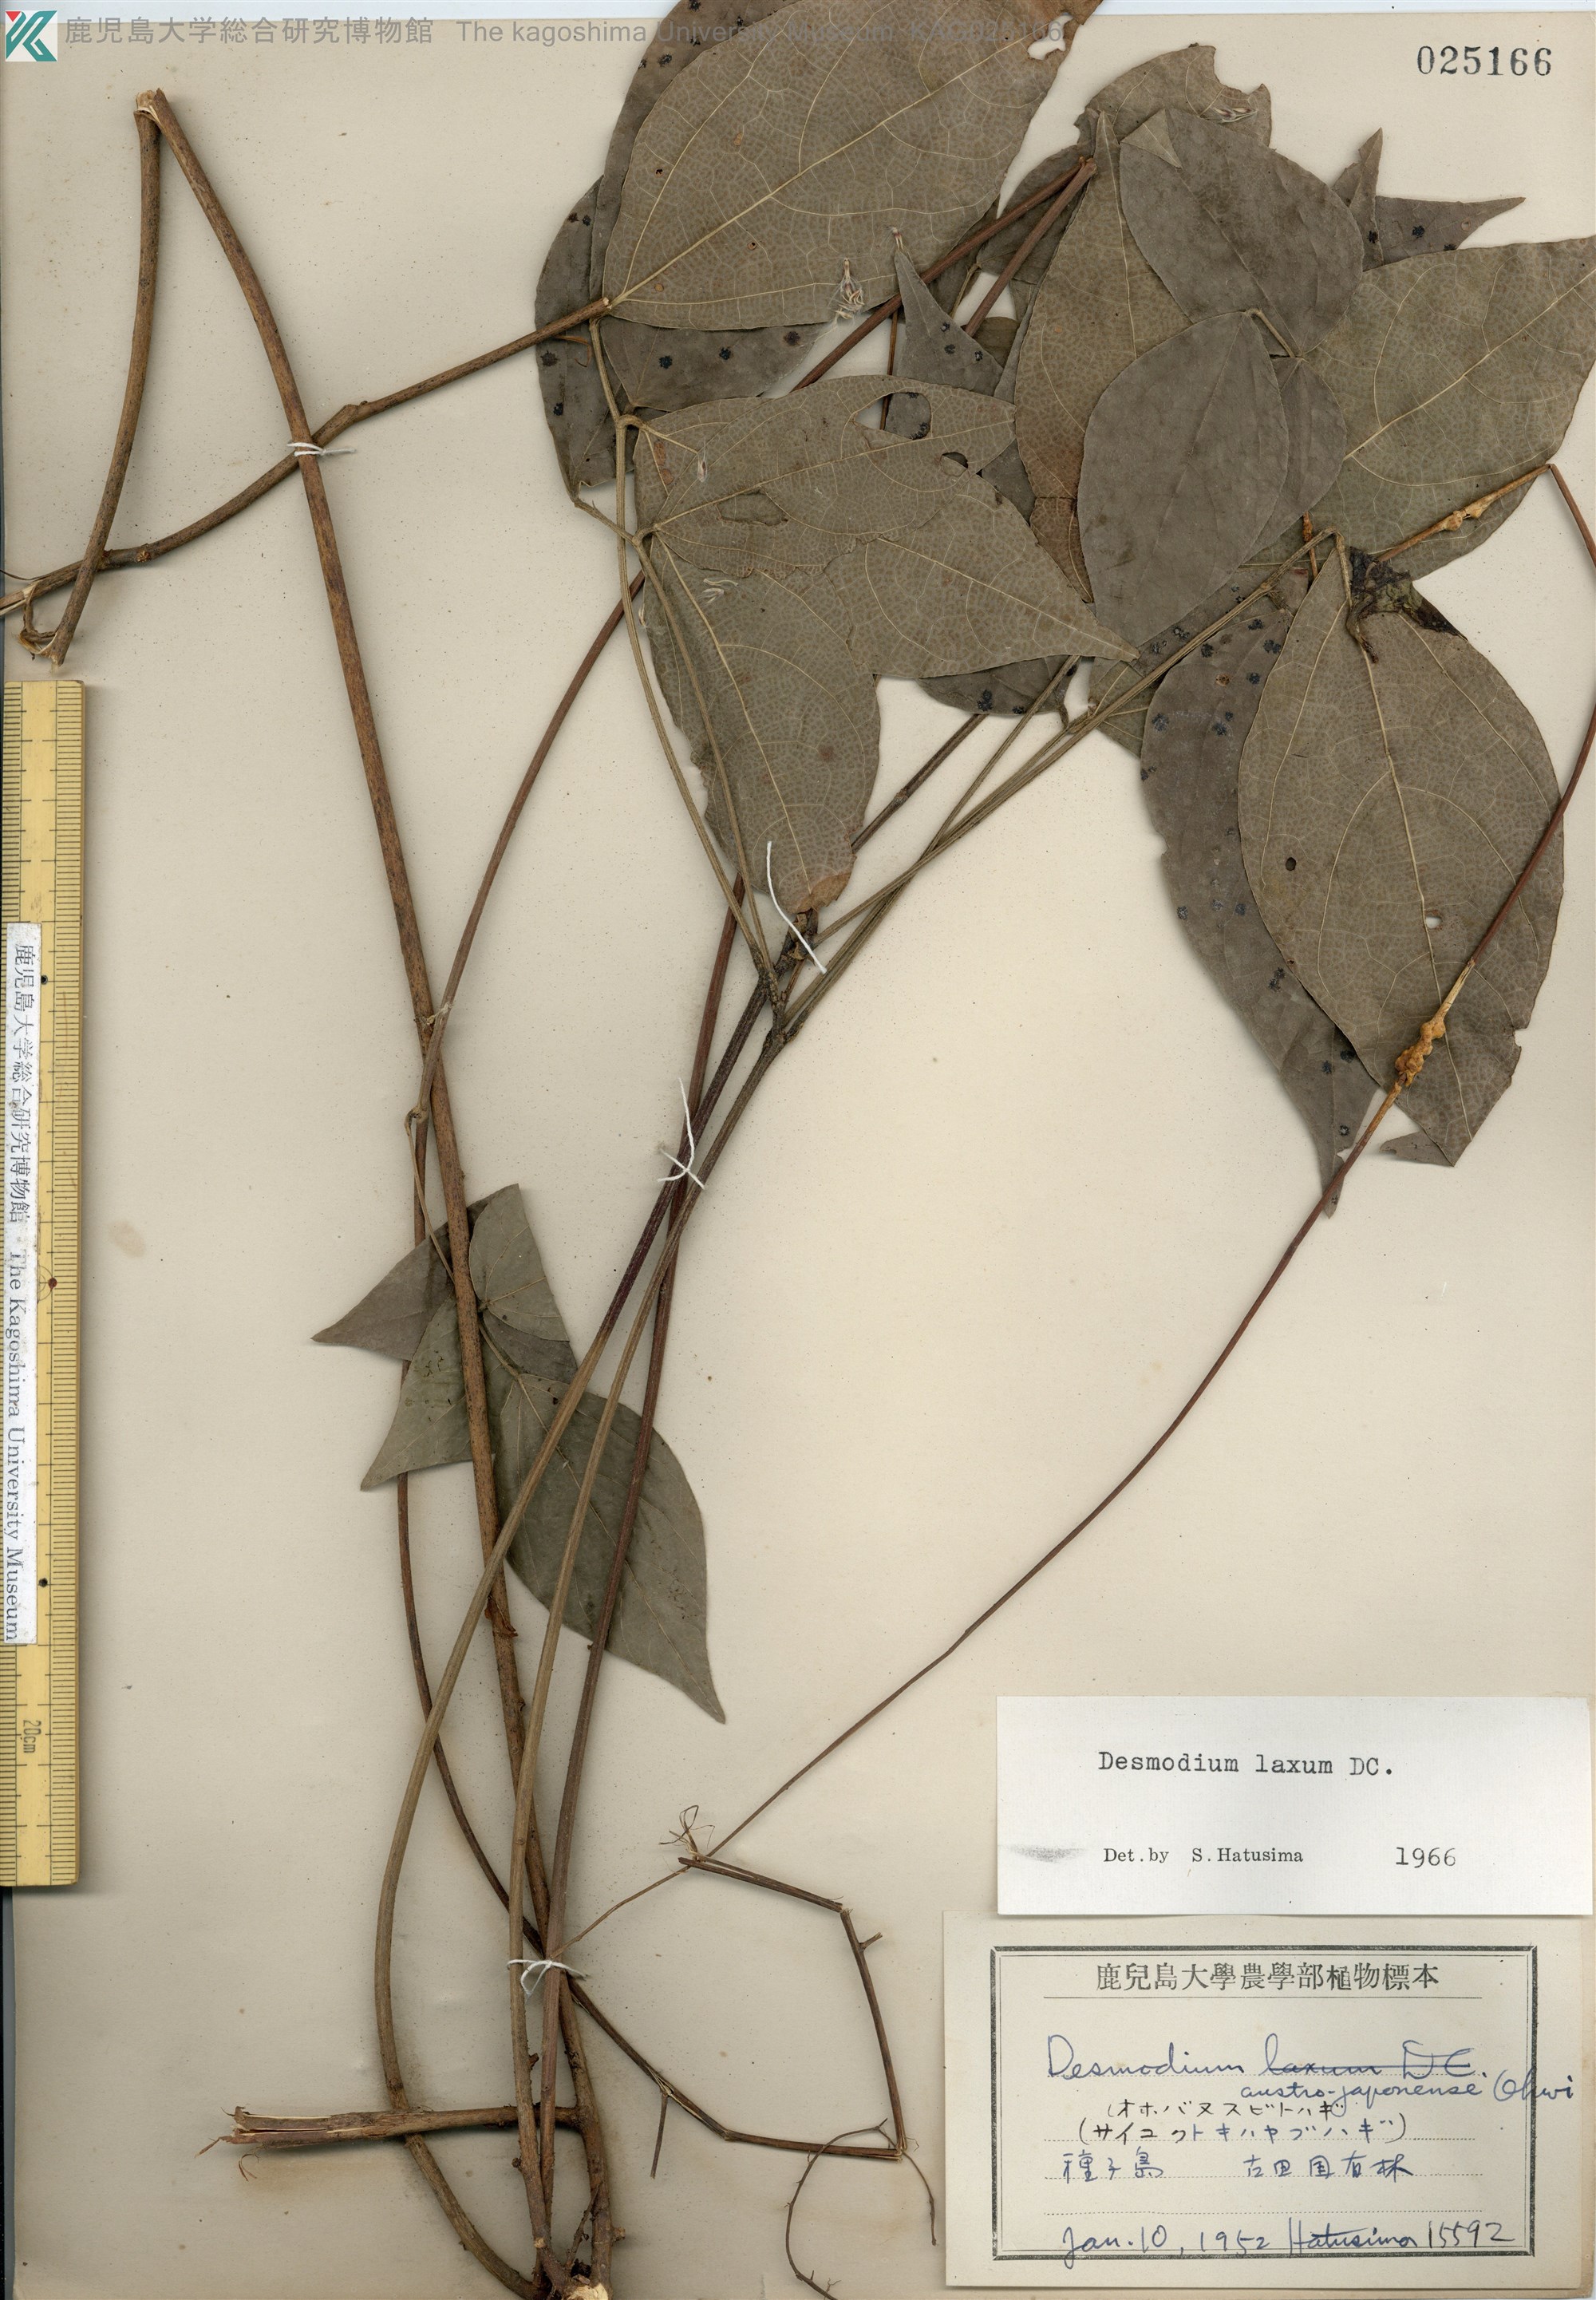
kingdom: Plantae
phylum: Tracheophyta
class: Magnoliopsida
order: Fabales
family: Fabaceae
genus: Desmodium
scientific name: Desmodium laxum
